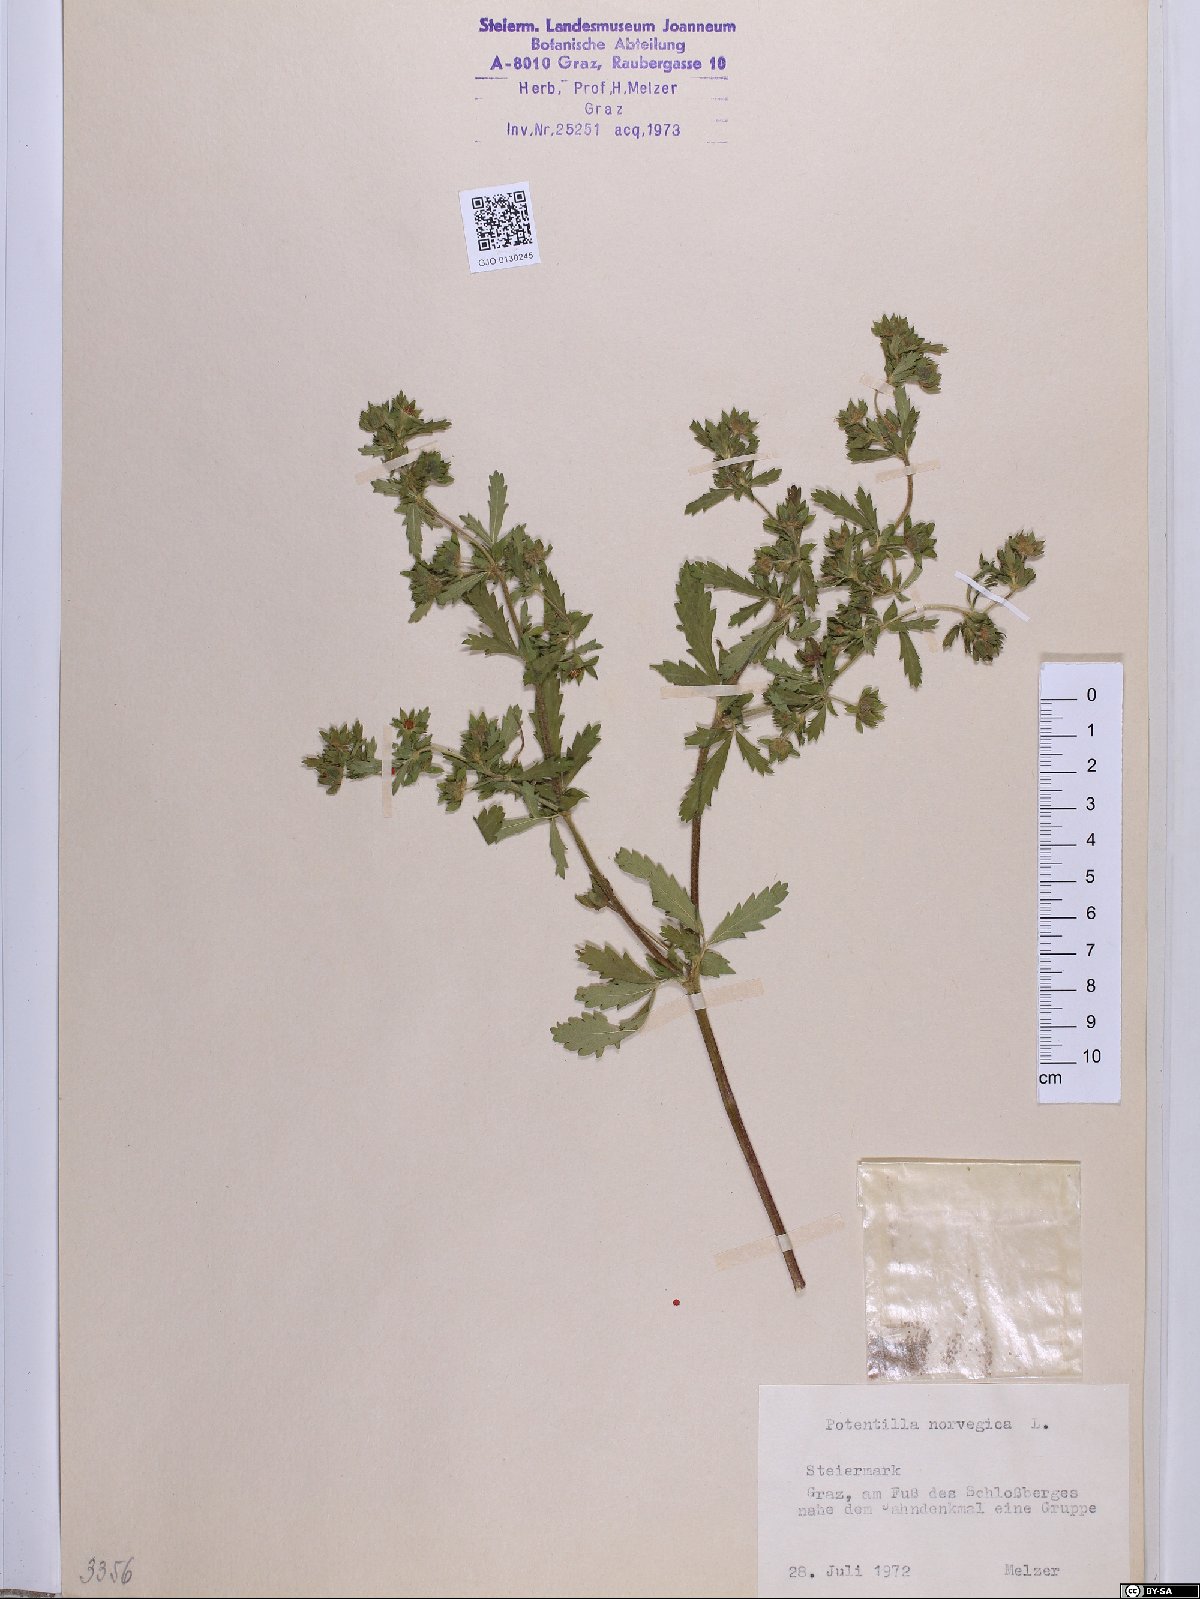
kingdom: Plantae
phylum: Tracheophyta
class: Magnoliopsida
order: Rosales
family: Rosaceae
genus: Potentilla
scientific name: Potentilla norvegica
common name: Ternate-leaved cinquefoil
